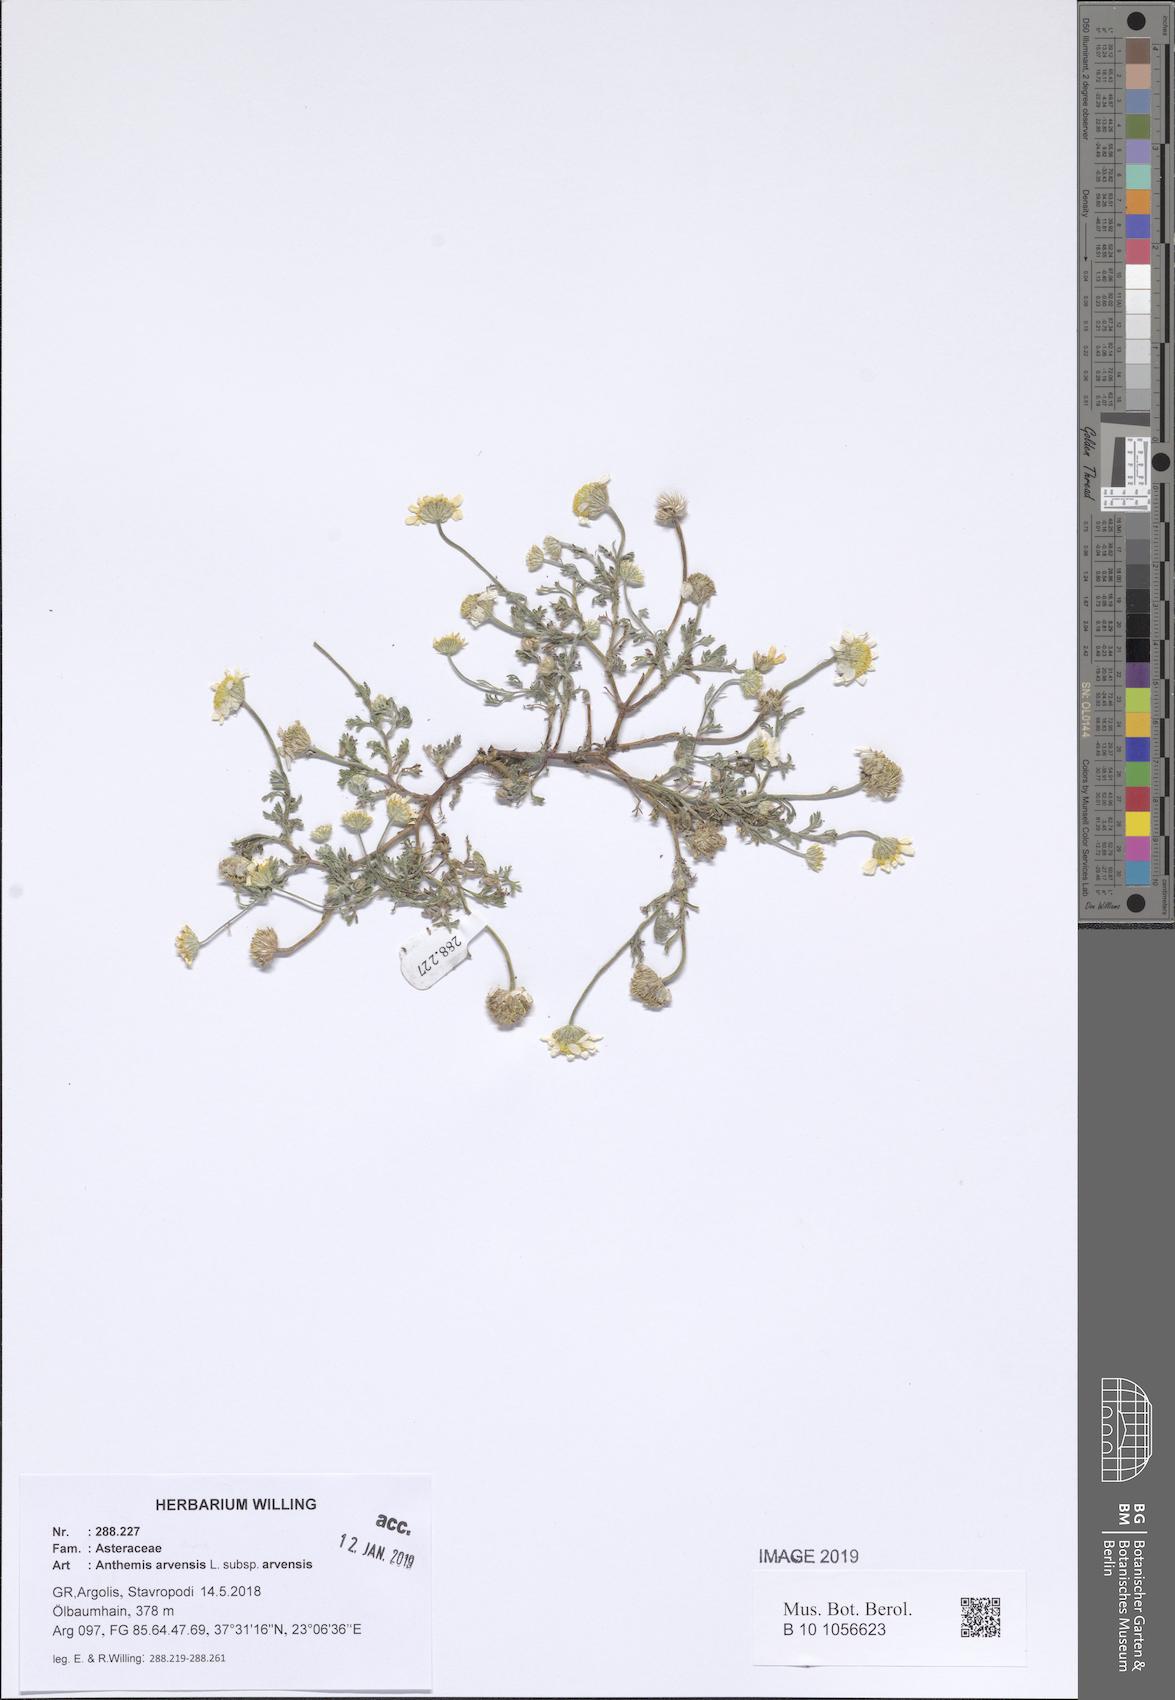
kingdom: Plantae
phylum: Tracheophyta
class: Magnoliopsida
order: Asterales
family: Asteraceae
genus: Anthemis
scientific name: Anthemis arvensis
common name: Corn chamomile
